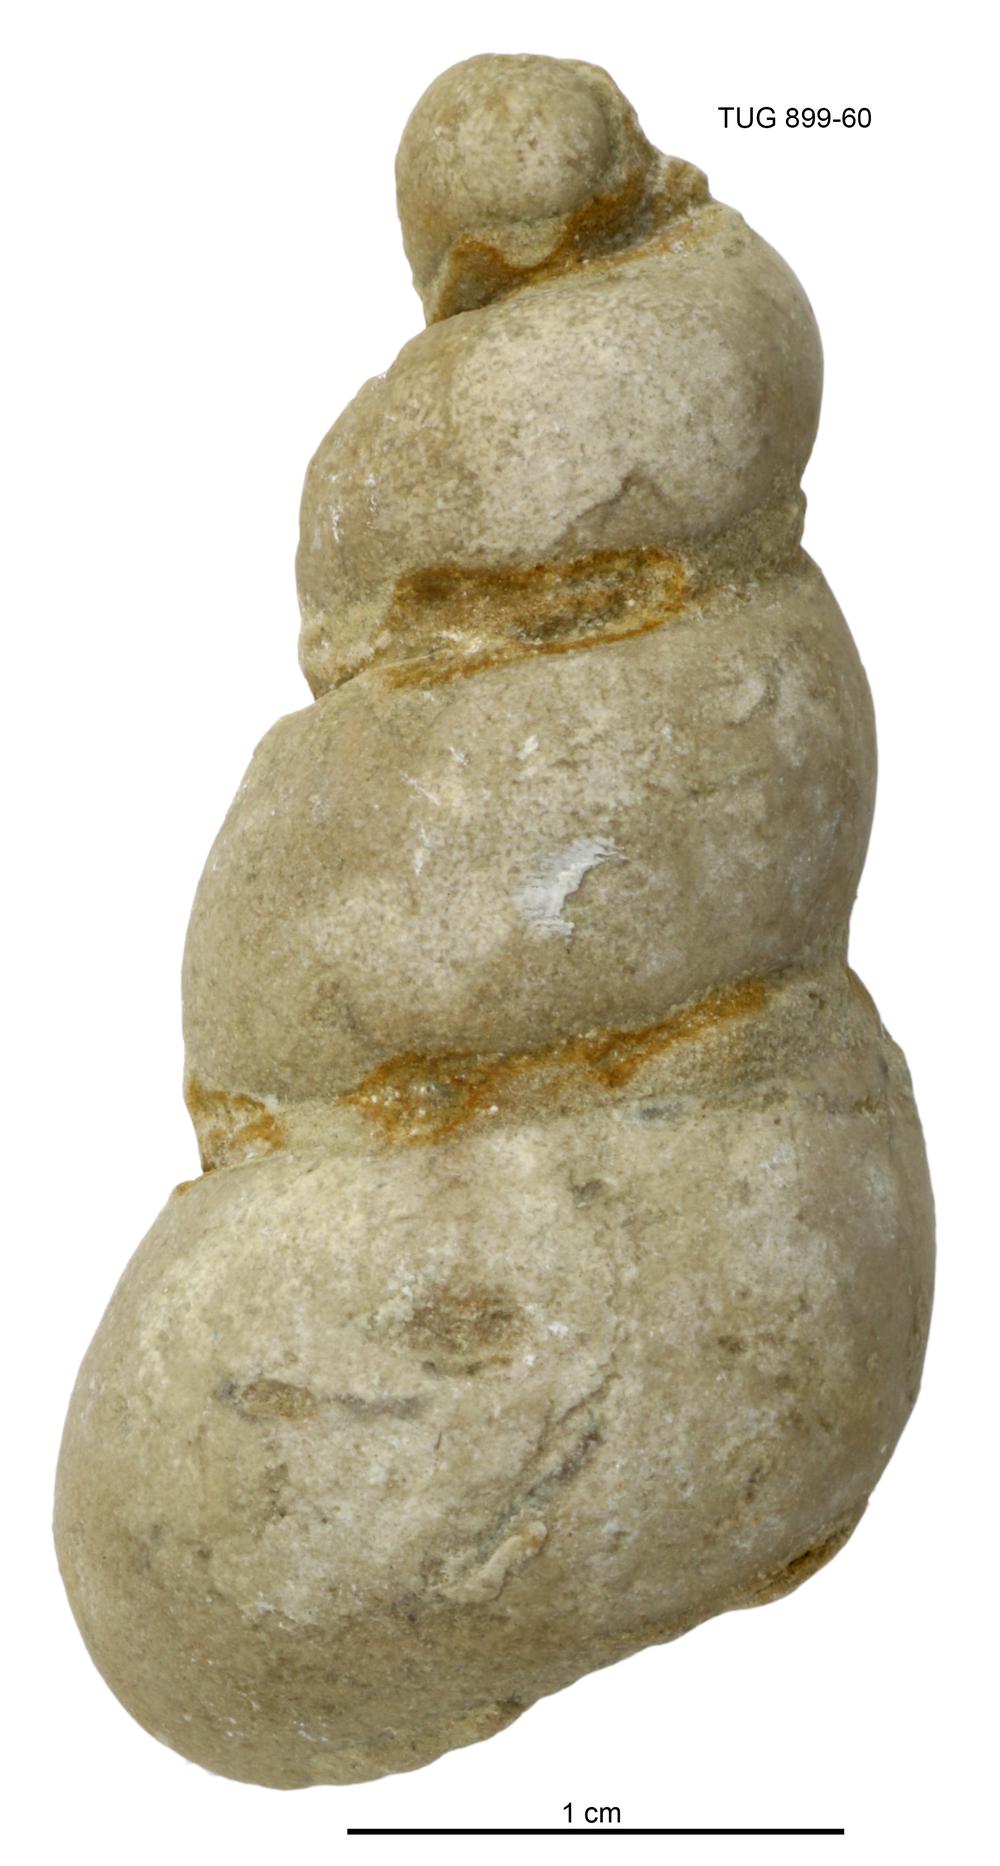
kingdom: Animalia
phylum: Mollusca
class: Gastropoda
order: Pleurotomariida
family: Murchisoniidae
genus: Murchisonia
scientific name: Murchisonia scrobiculata
